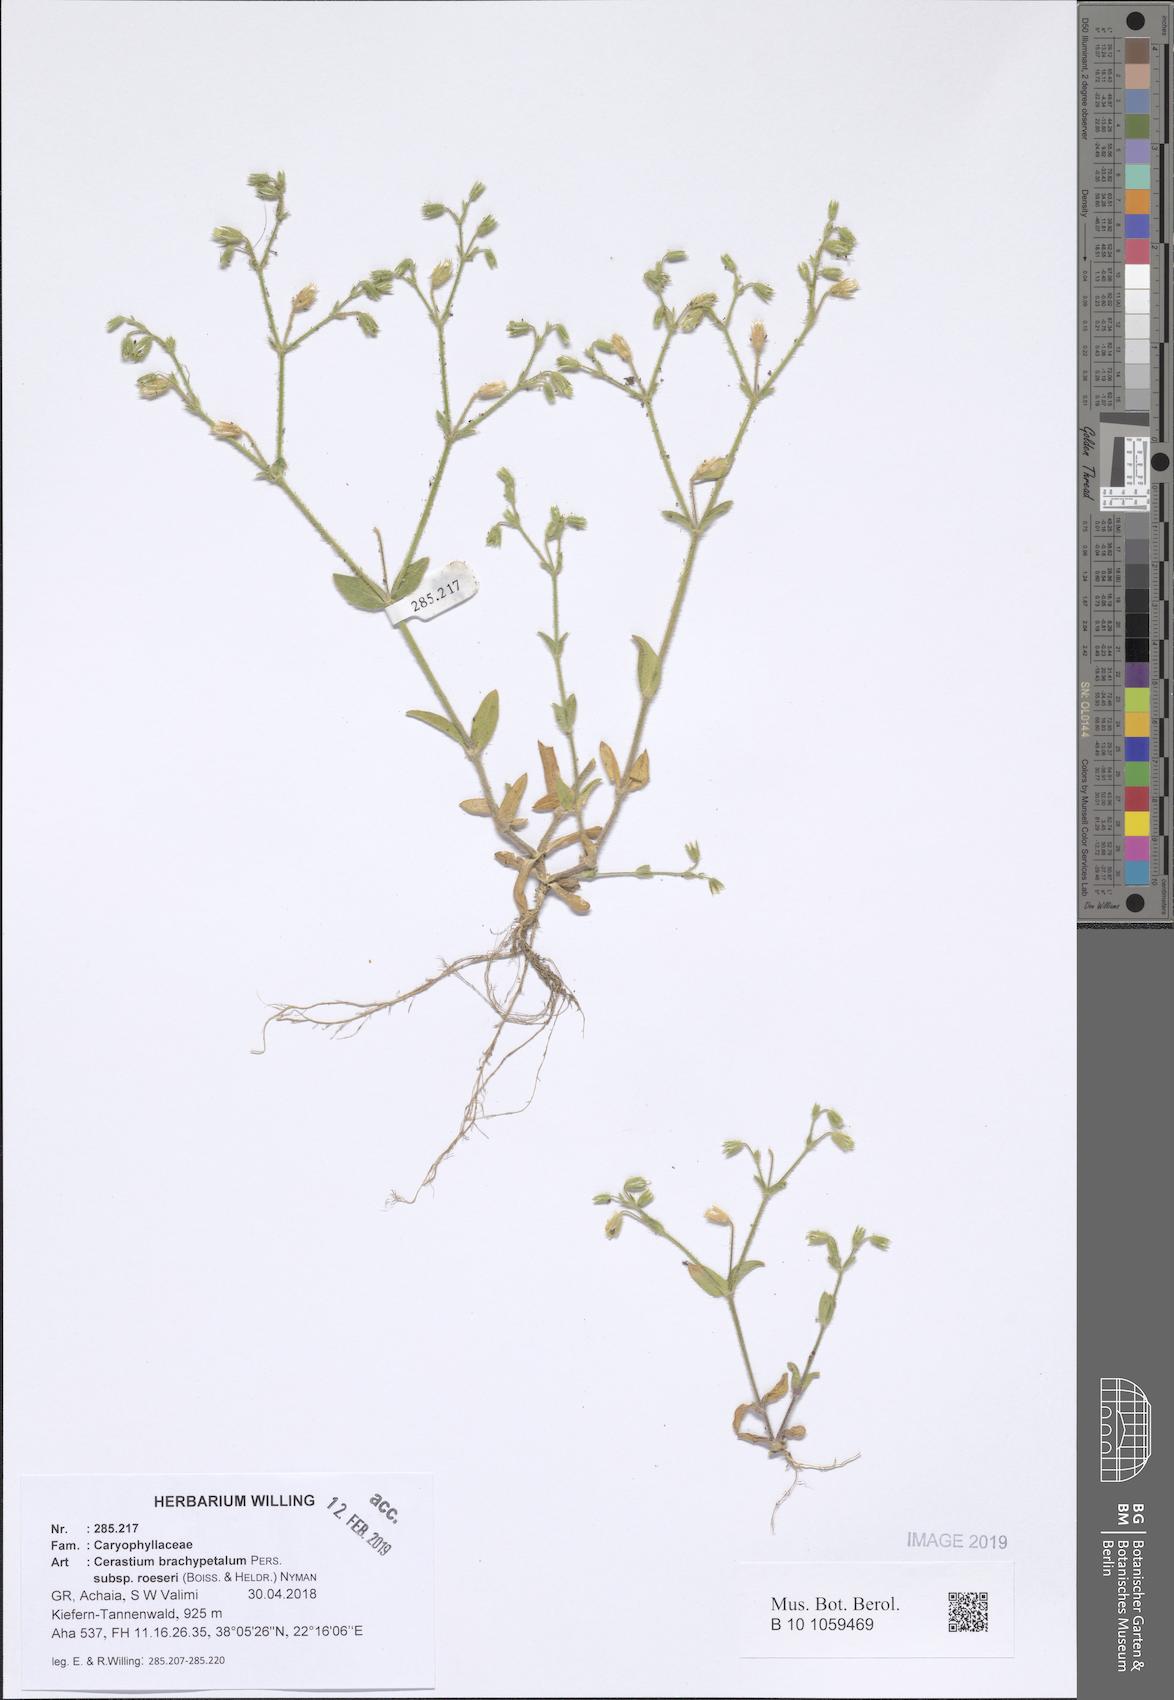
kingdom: Plantae
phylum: Tracheophyta
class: Magnoliopsida
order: Caryophyllales
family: Caryophyllaceae
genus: Cerastium
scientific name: Cerastium brachypetalum
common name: Grey mouse-ear
